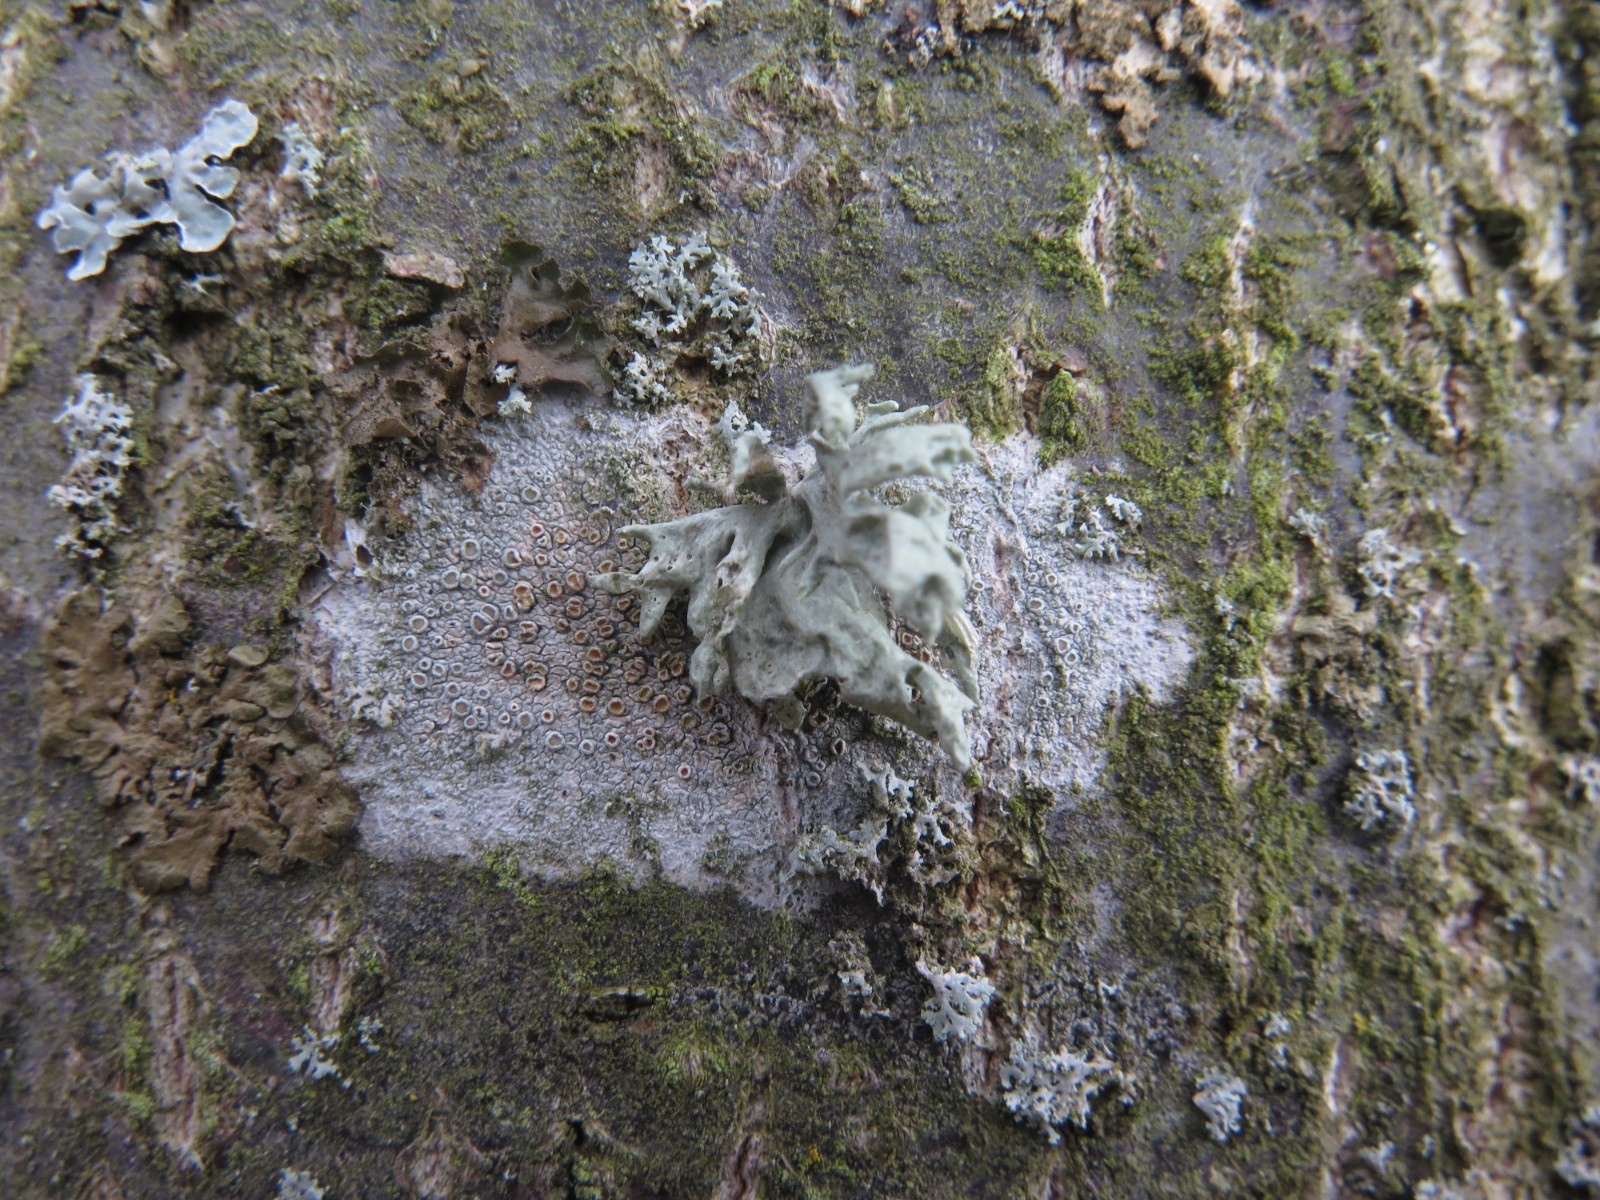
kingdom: Fungi
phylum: Ascomycota
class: Lecanoromycetes
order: Lecanorales
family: Ramalinaceae
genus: Ramalina
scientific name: Ramalina fastigiata
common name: tue-grenlav
